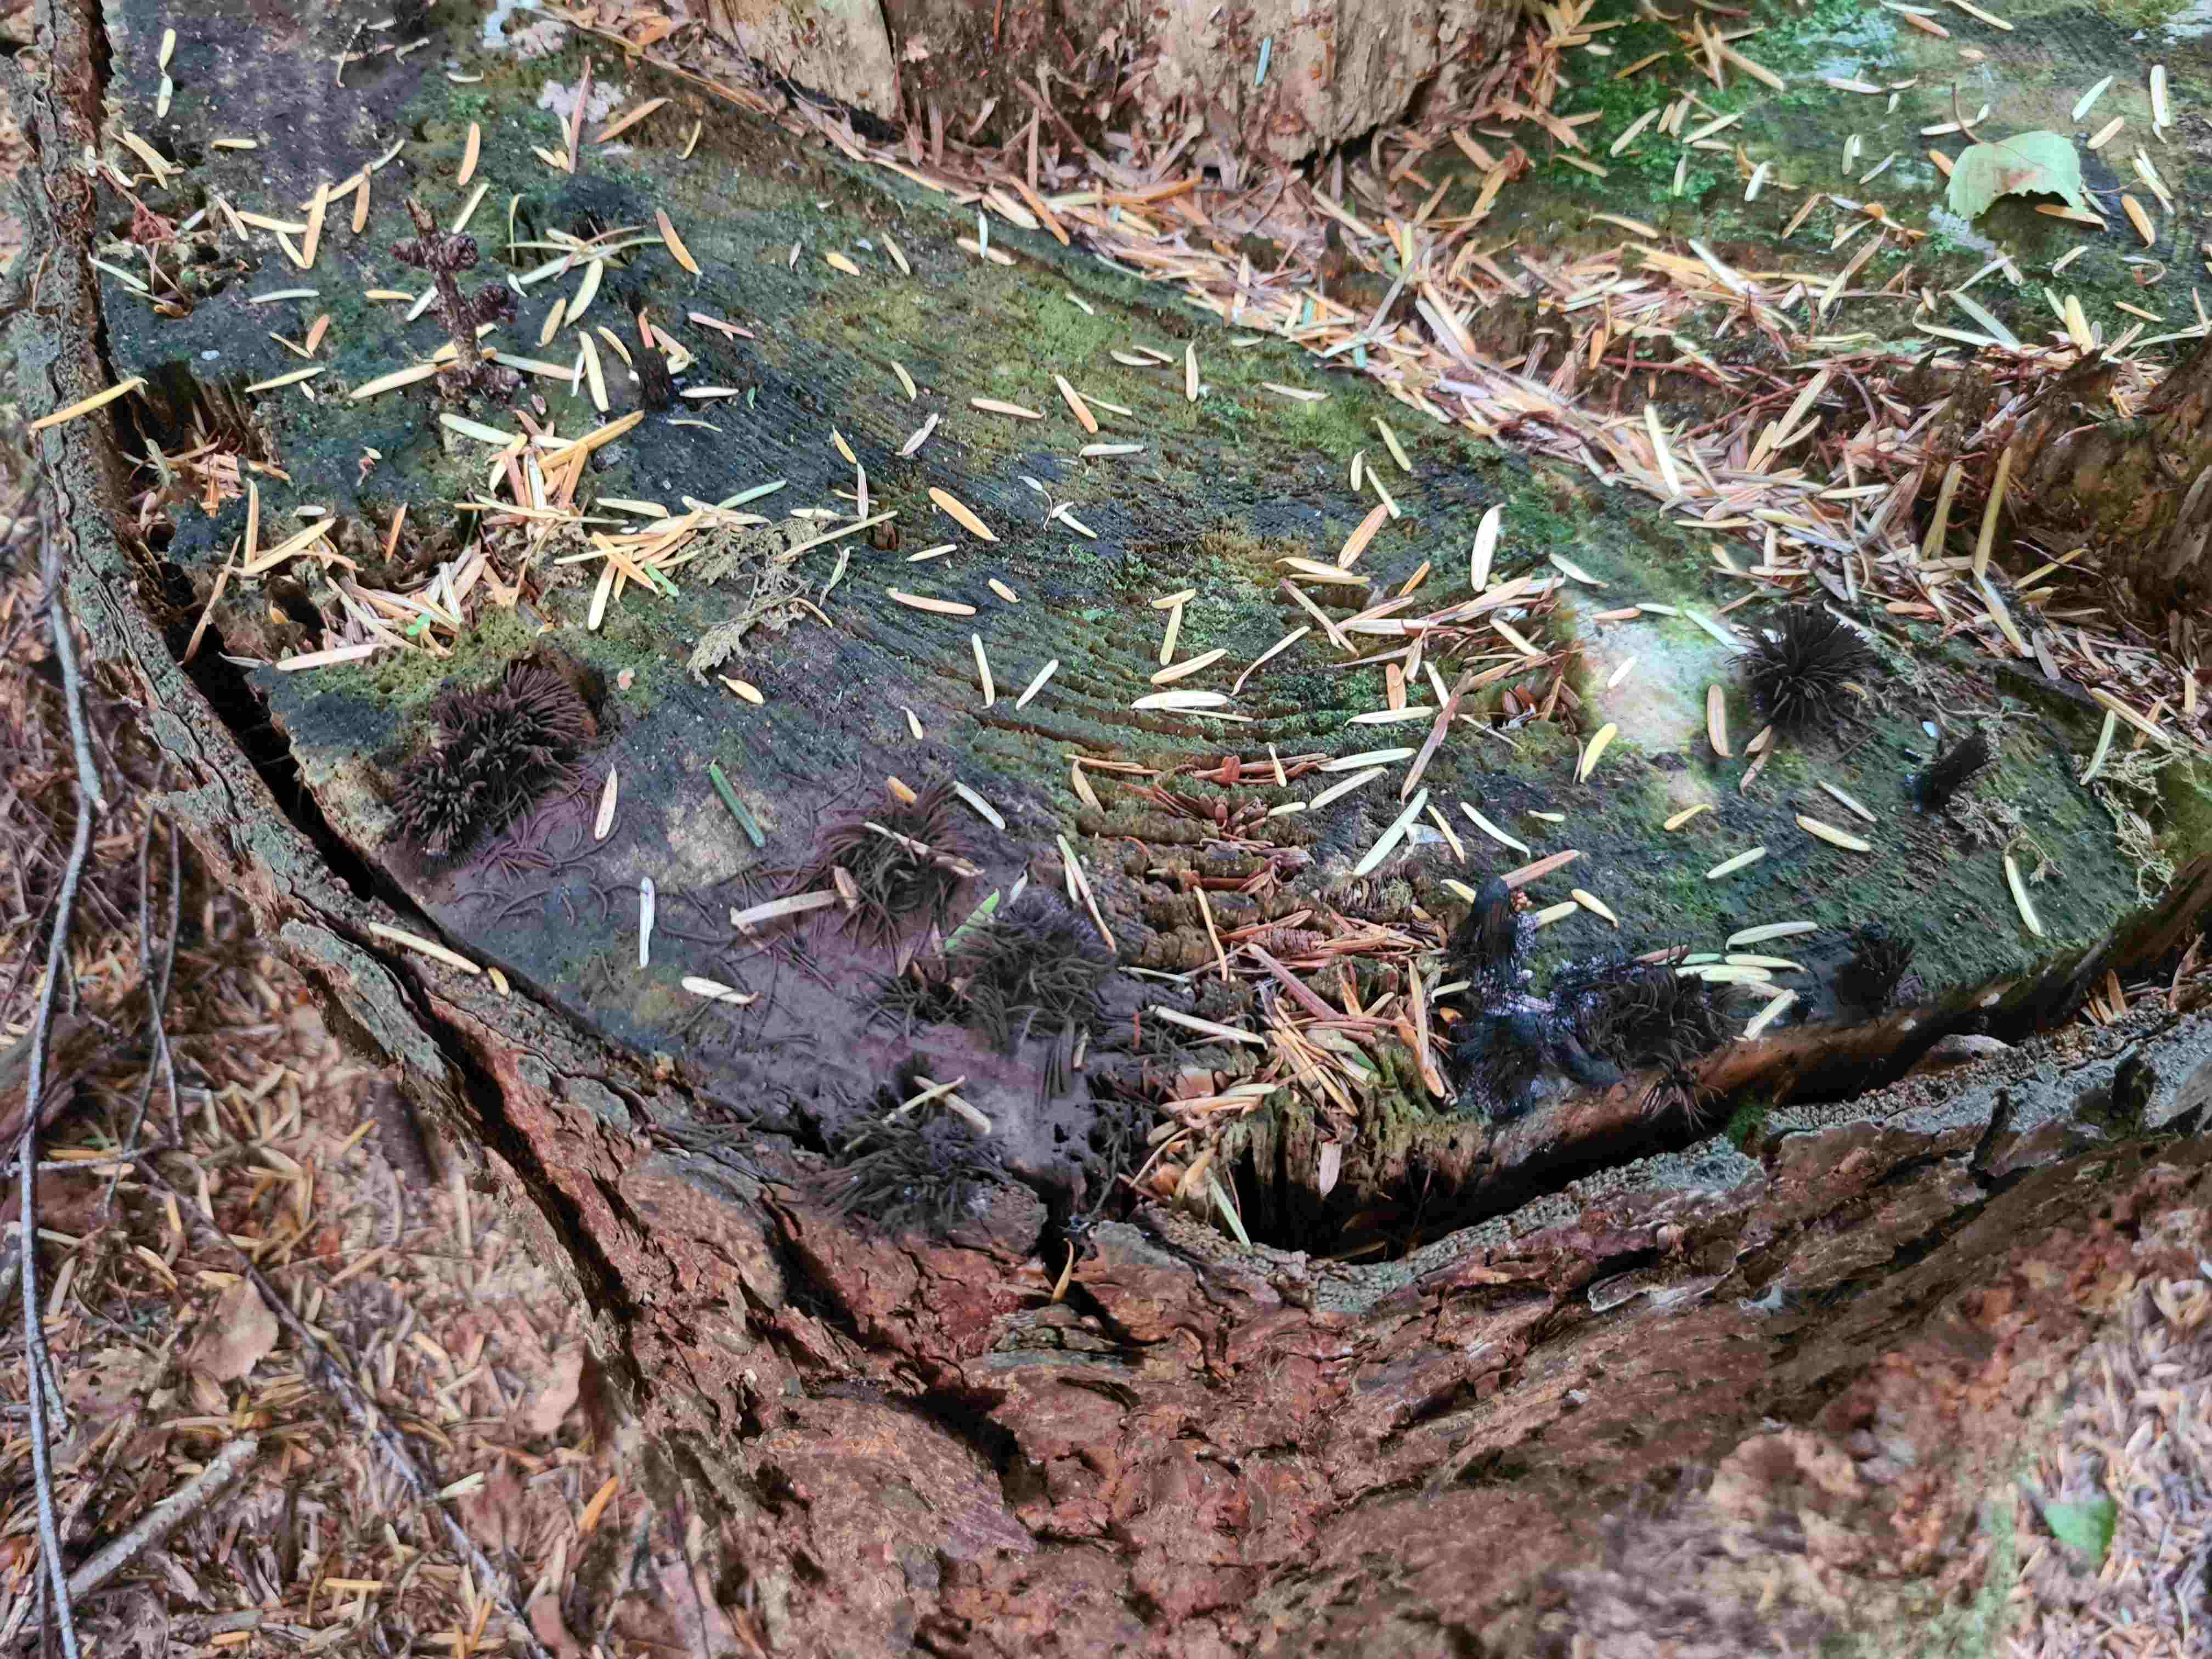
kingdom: Protozoa
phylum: Mycetozoa
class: Myxomycetes
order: Stemonitidales
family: Stemonitidaceae
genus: Stemonitis
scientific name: Stemonitis fusca
